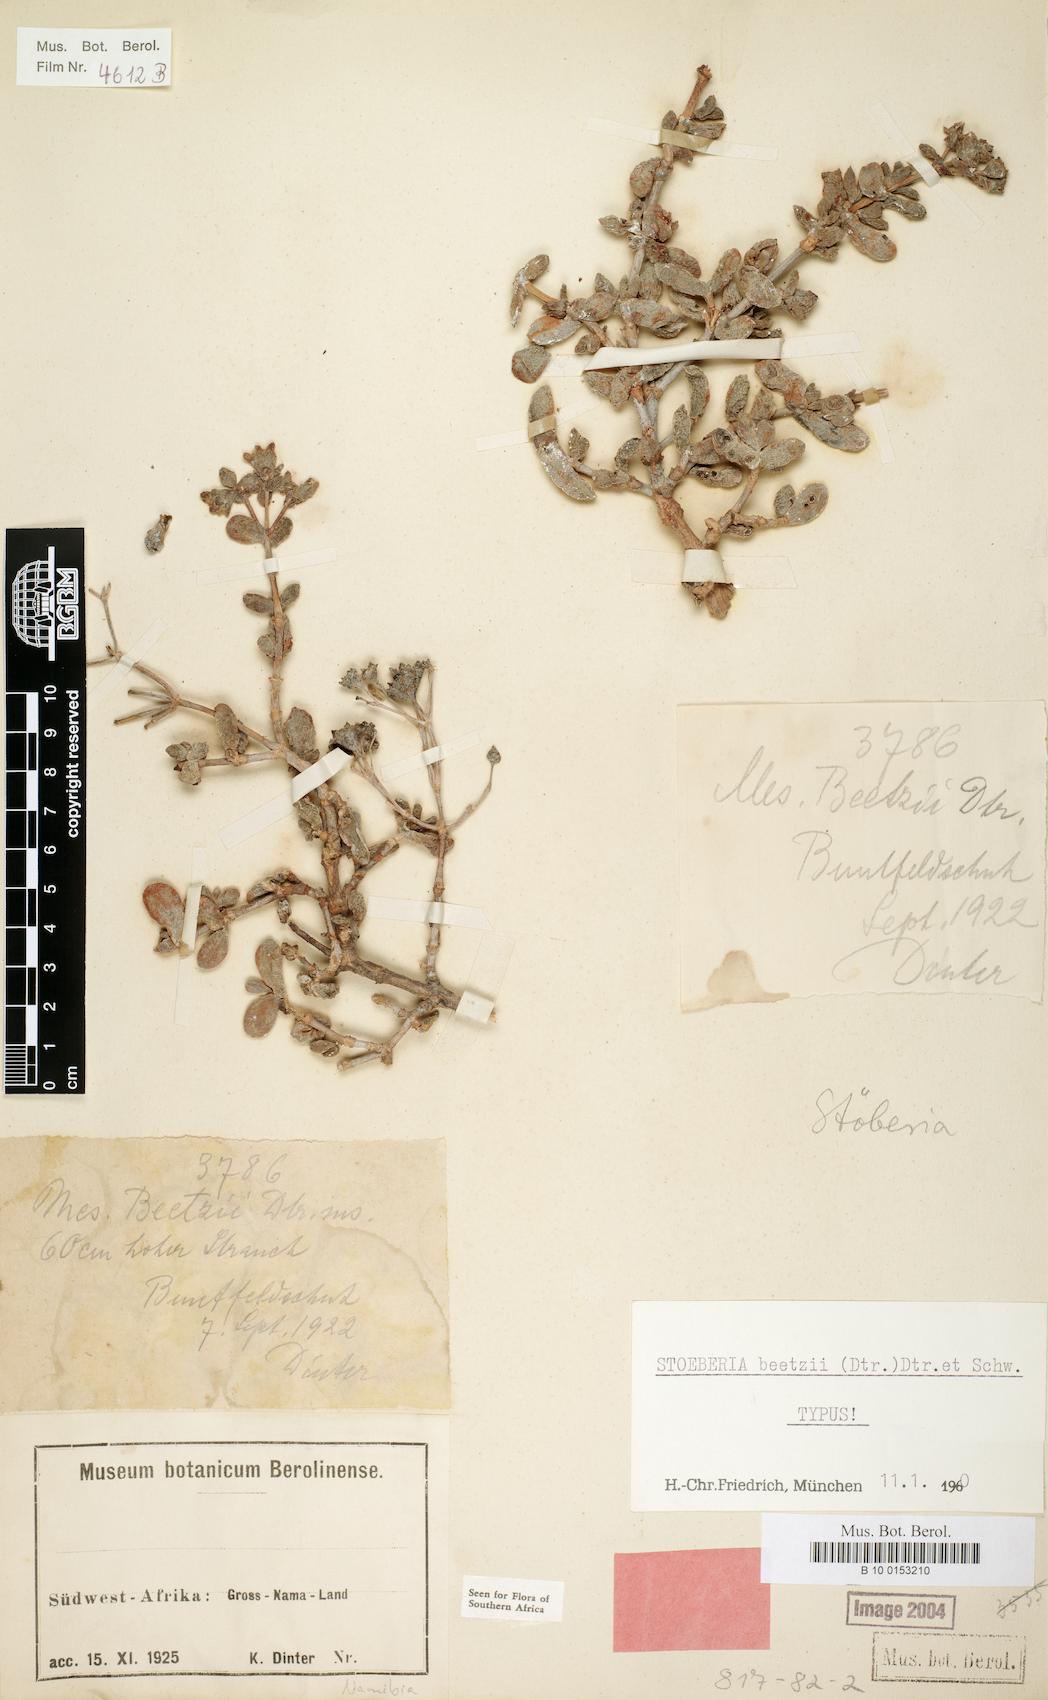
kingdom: Plantae
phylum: Tracheophyta
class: Magnoliopsida
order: Caryophyllales
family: Aizoaceae
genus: Stoeberia
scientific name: Stoeberia beetzii
